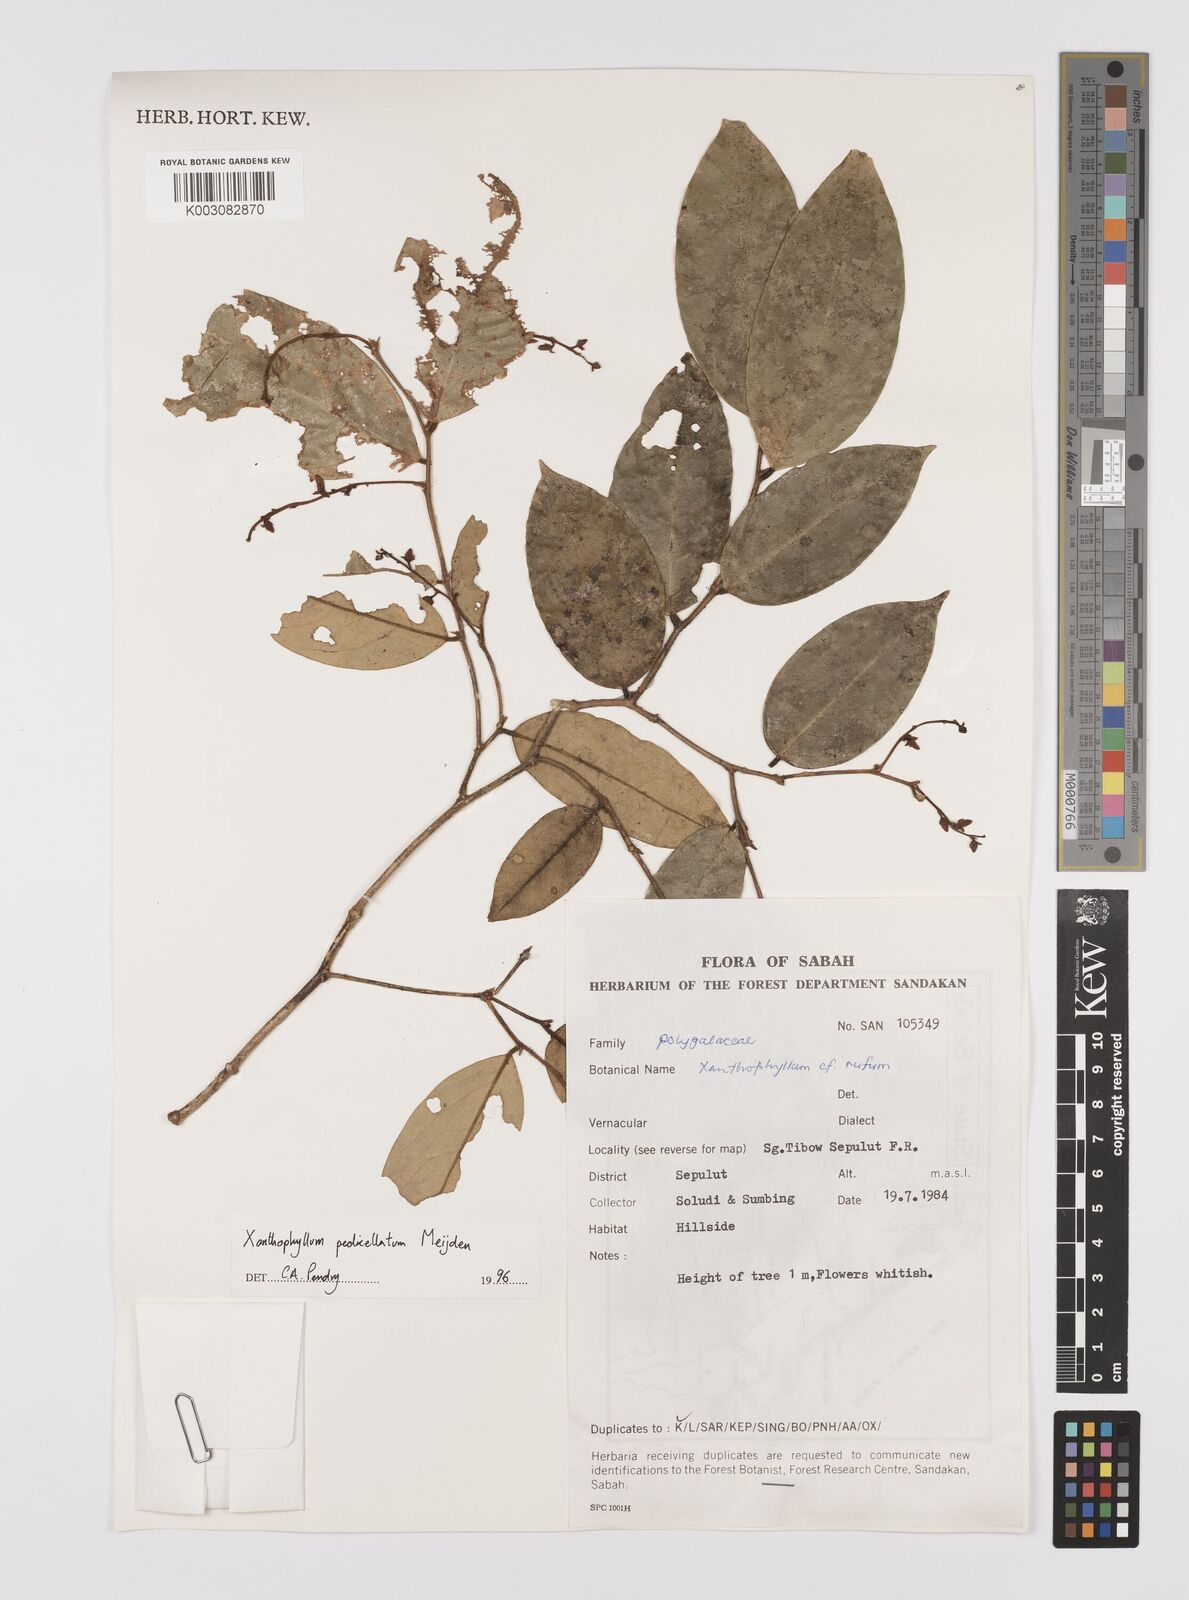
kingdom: Plantae
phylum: Tracheophyta
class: Magnoliopsida
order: Fabales
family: Polygalaceae
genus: Xanthophyllum
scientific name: Xanthophyllum pedicellatum
